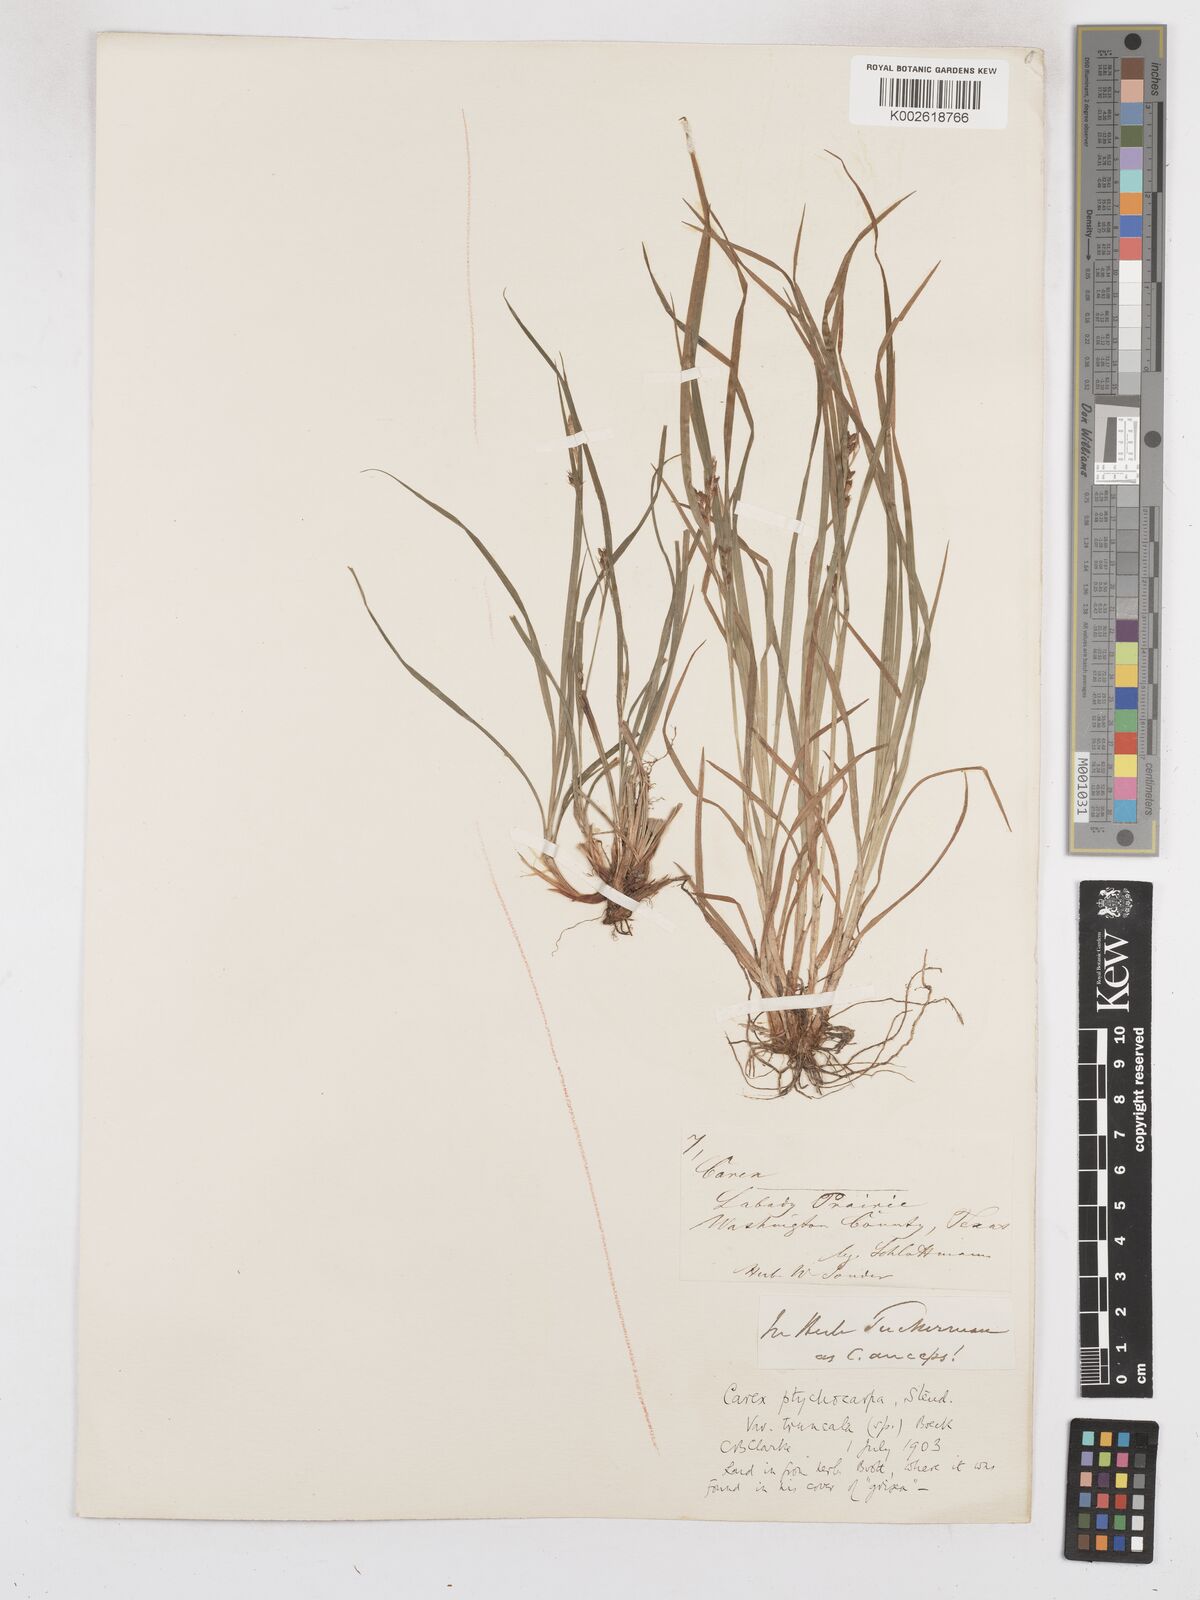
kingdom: Plantae
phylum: Tracheophyta
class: Liliopsida
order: Poales
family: Cyperaceae
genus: Carex
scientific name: Carex abscondita
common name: Thicket sedge
